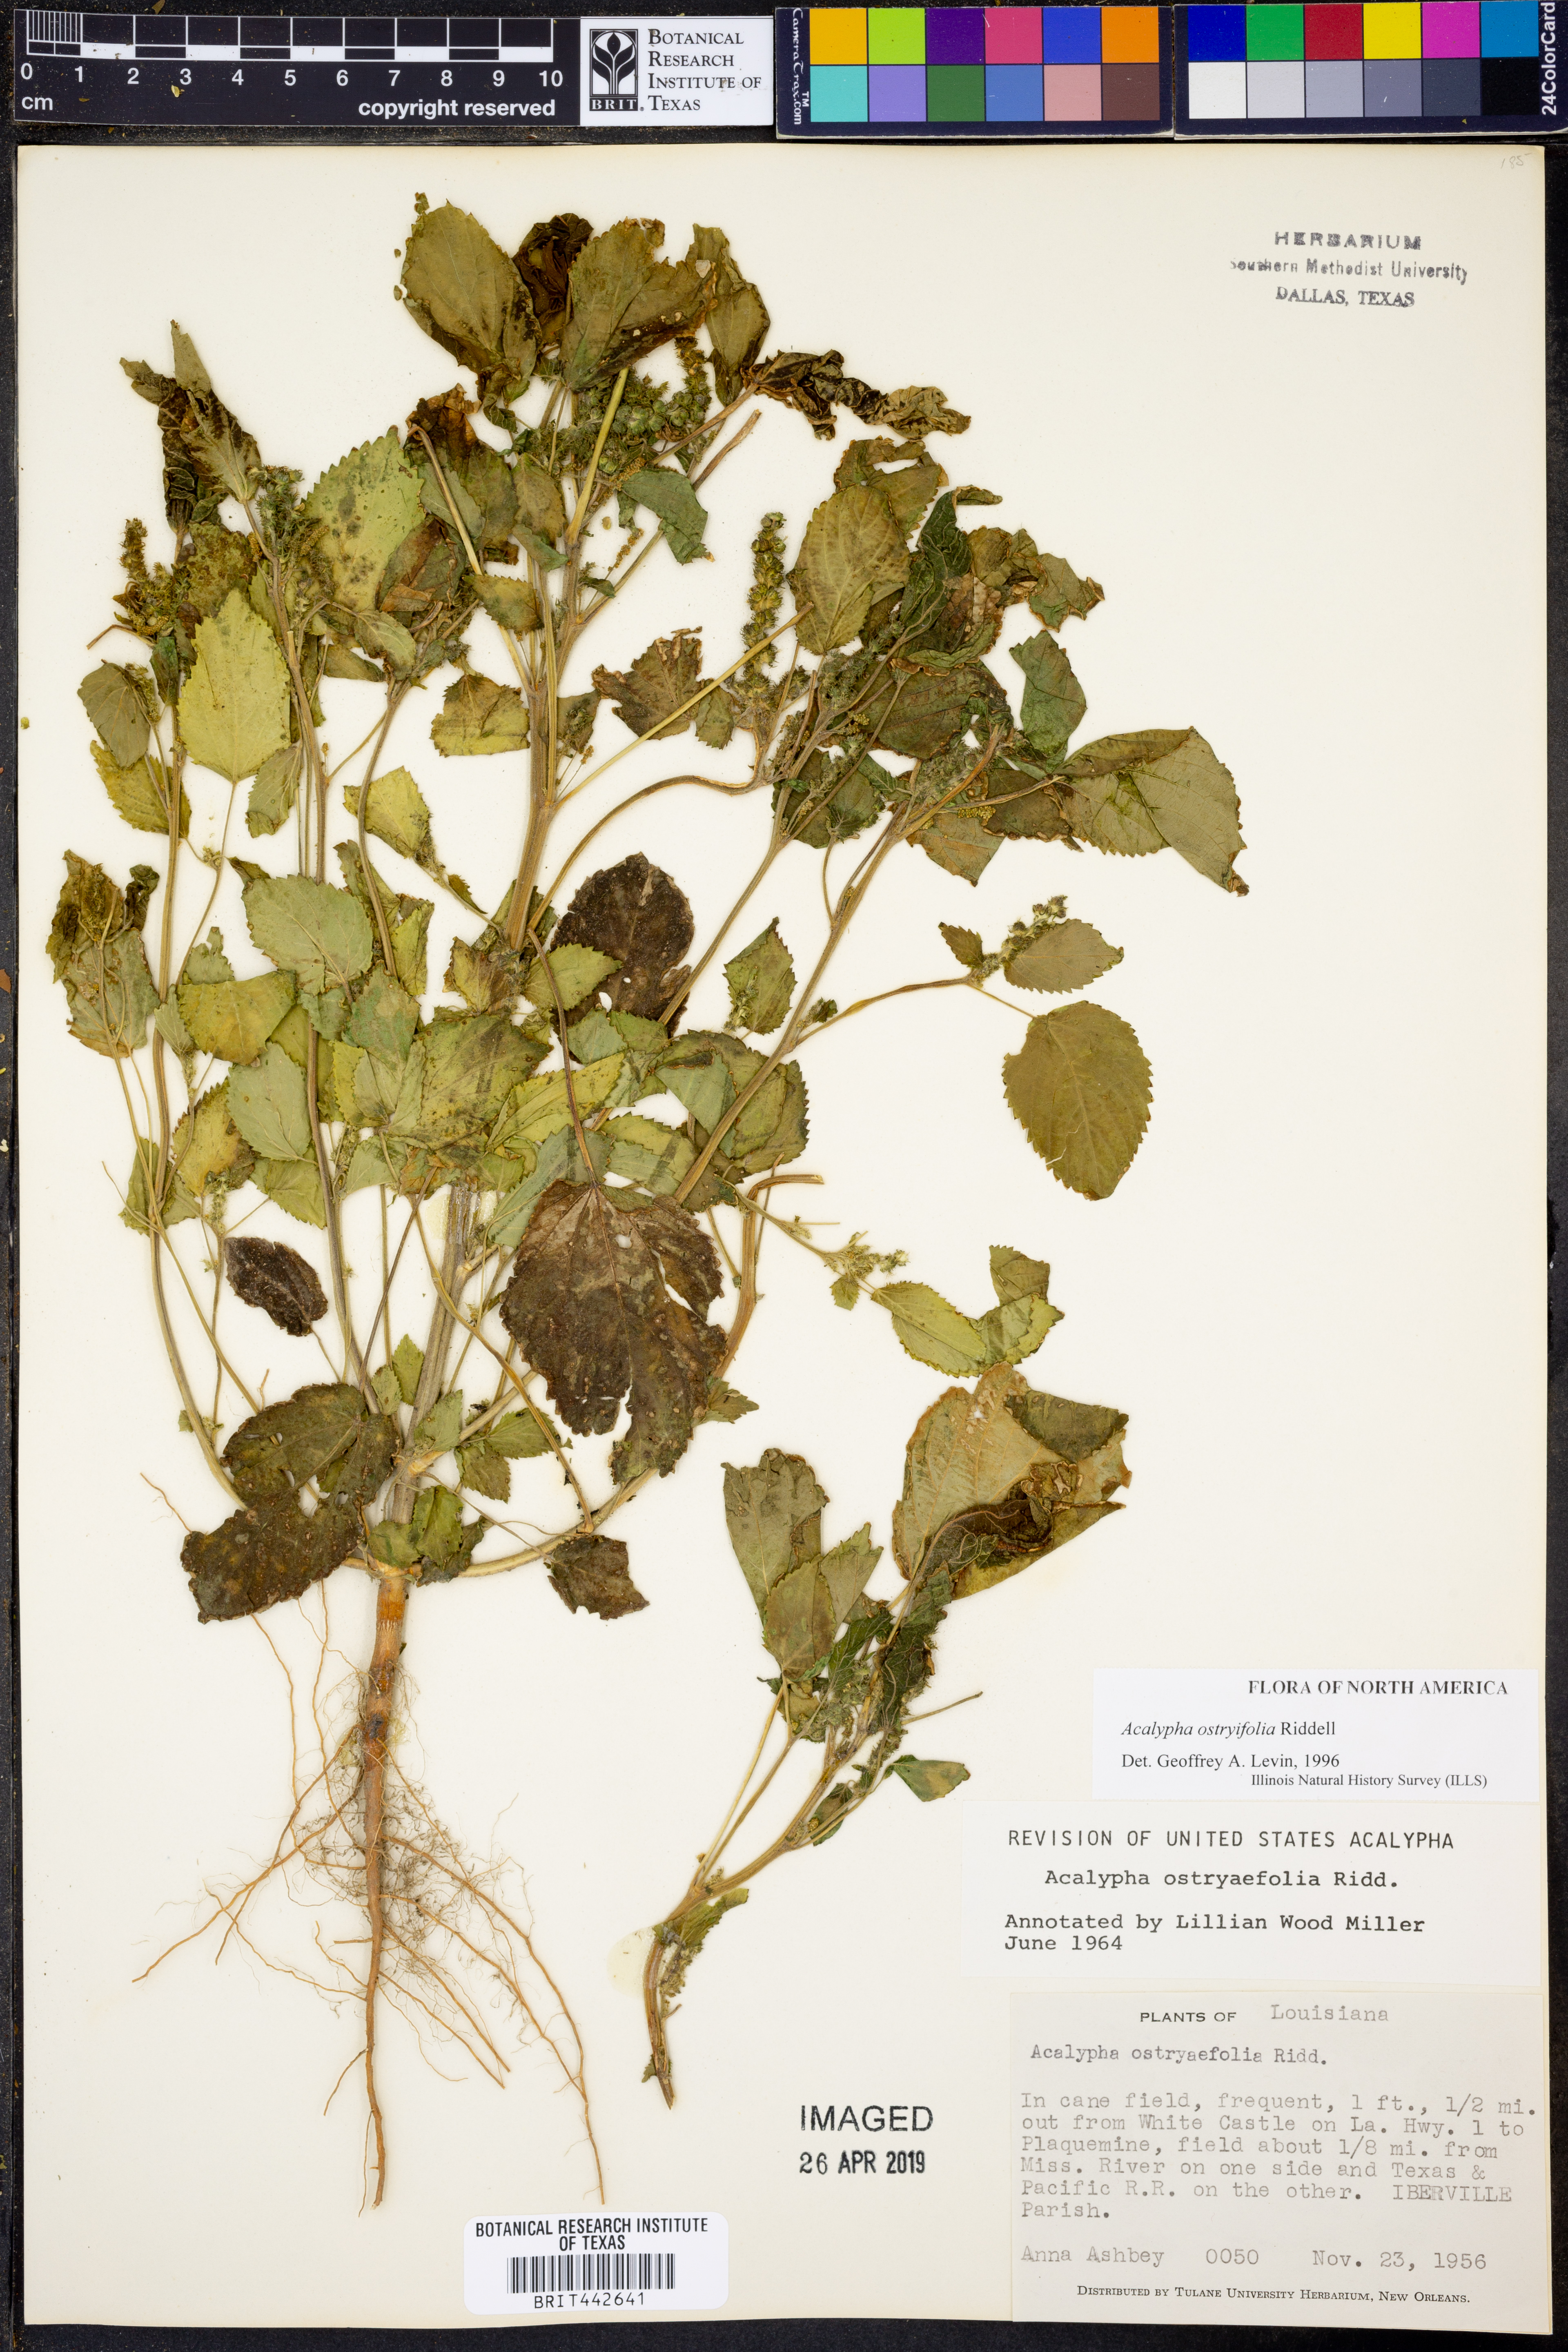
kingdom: Plantae
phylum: Tracheophyta
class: Magnoliopsida
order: Malpighiales
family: Euphorbiaceae
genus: Acalypha
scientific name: Acalypha persimilis
